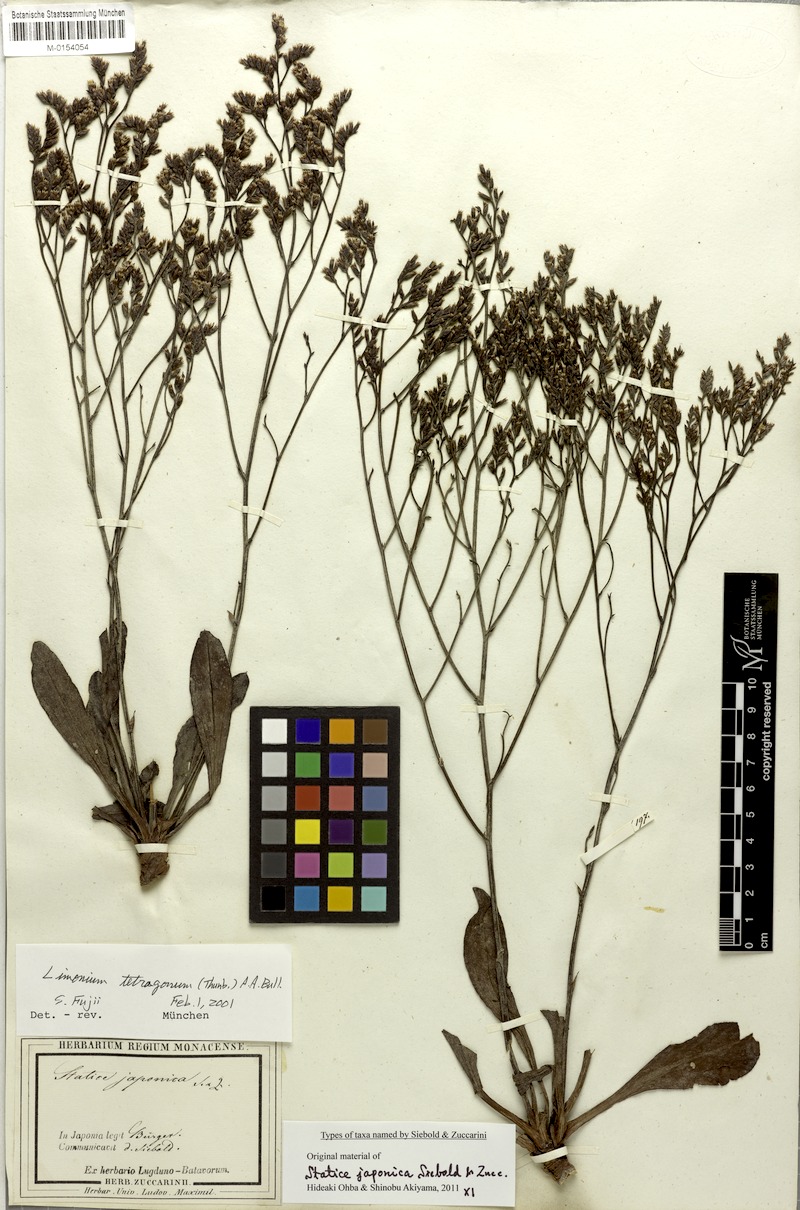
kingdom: Plantae
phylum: Tracheophyta
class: Magnoliopsida
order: Caryophyllales
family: Plumbaginaceae
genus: Limonium
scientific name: Limonium tetragonum
